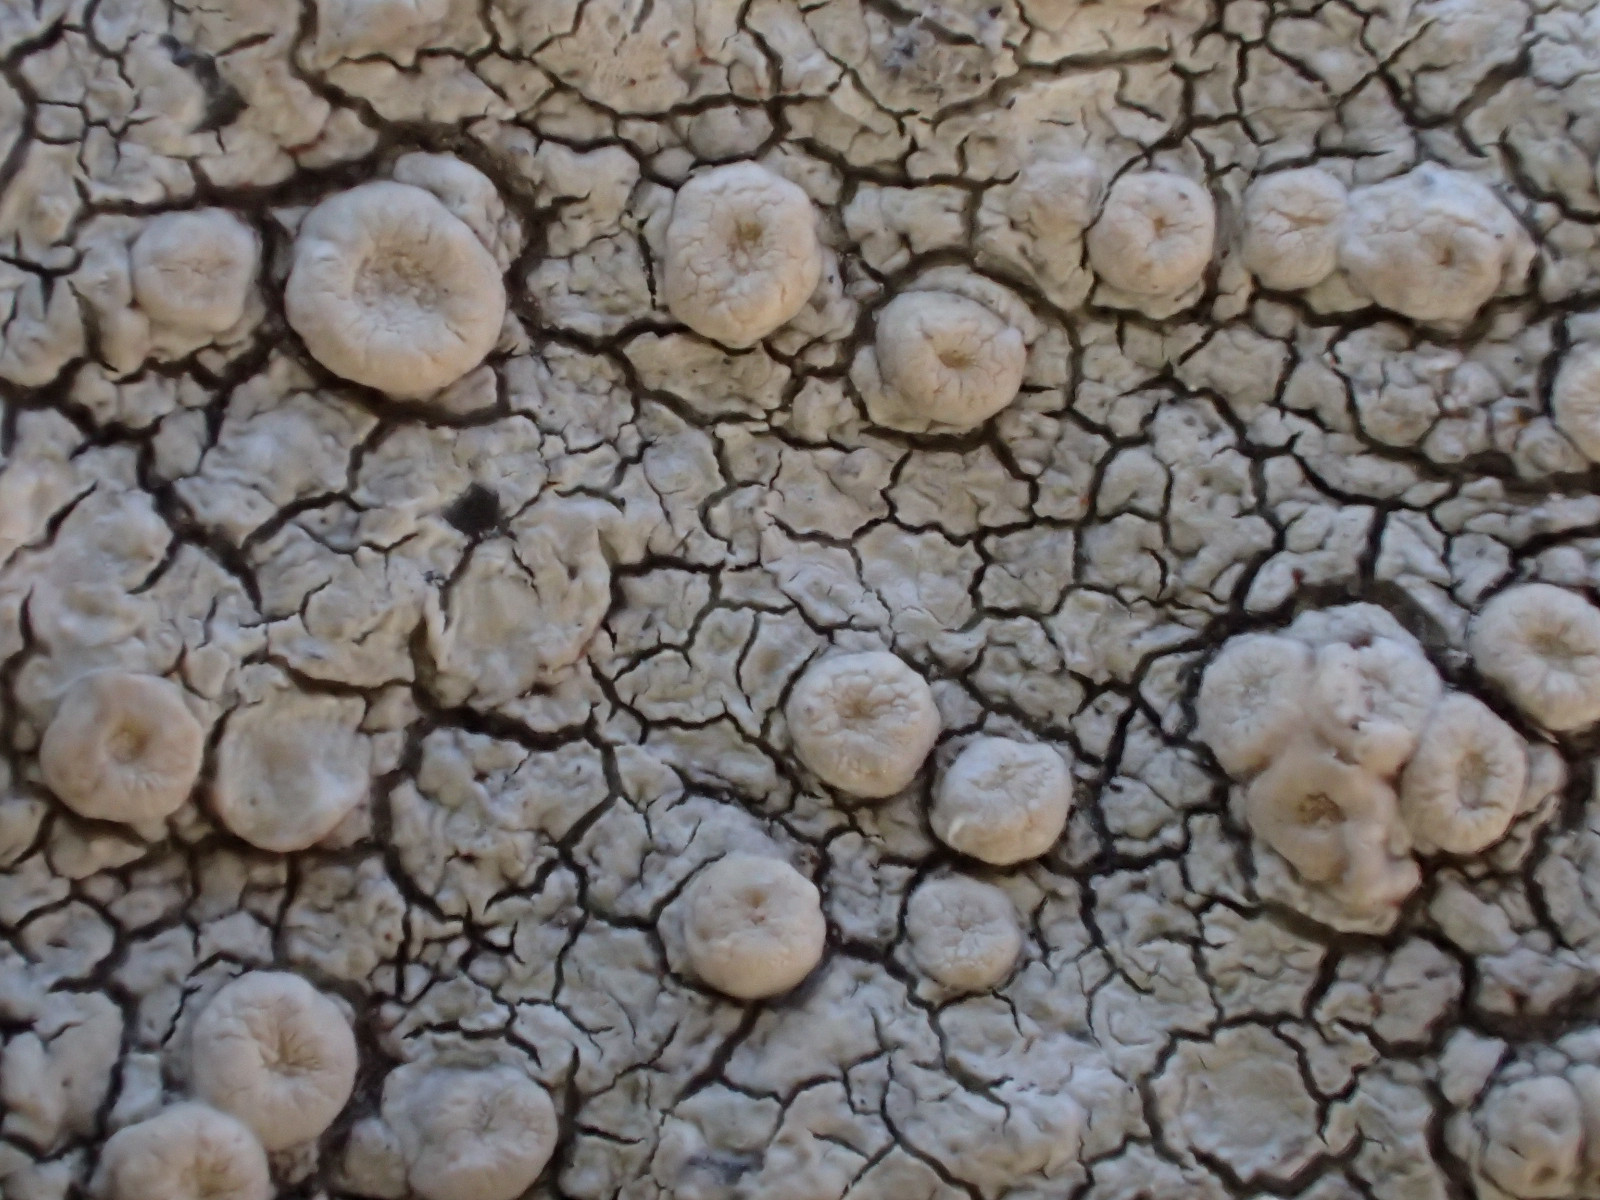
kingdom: Fungi
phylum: Ascomycota
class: Lecanoromycetes
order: Pertusariales
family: Ochrolechiaceae
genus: Ochrolechia
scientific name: Ochrolechia parella
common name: almindelig blegskivelav
